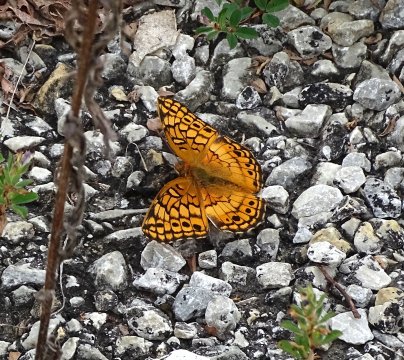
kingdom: Animalia
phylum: Arthropoda
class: Insecta
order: Lepidoptera
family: Nymphalidae
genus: Euptoieta
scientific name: Euptoieta claudia
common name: Variegated Fritillary
